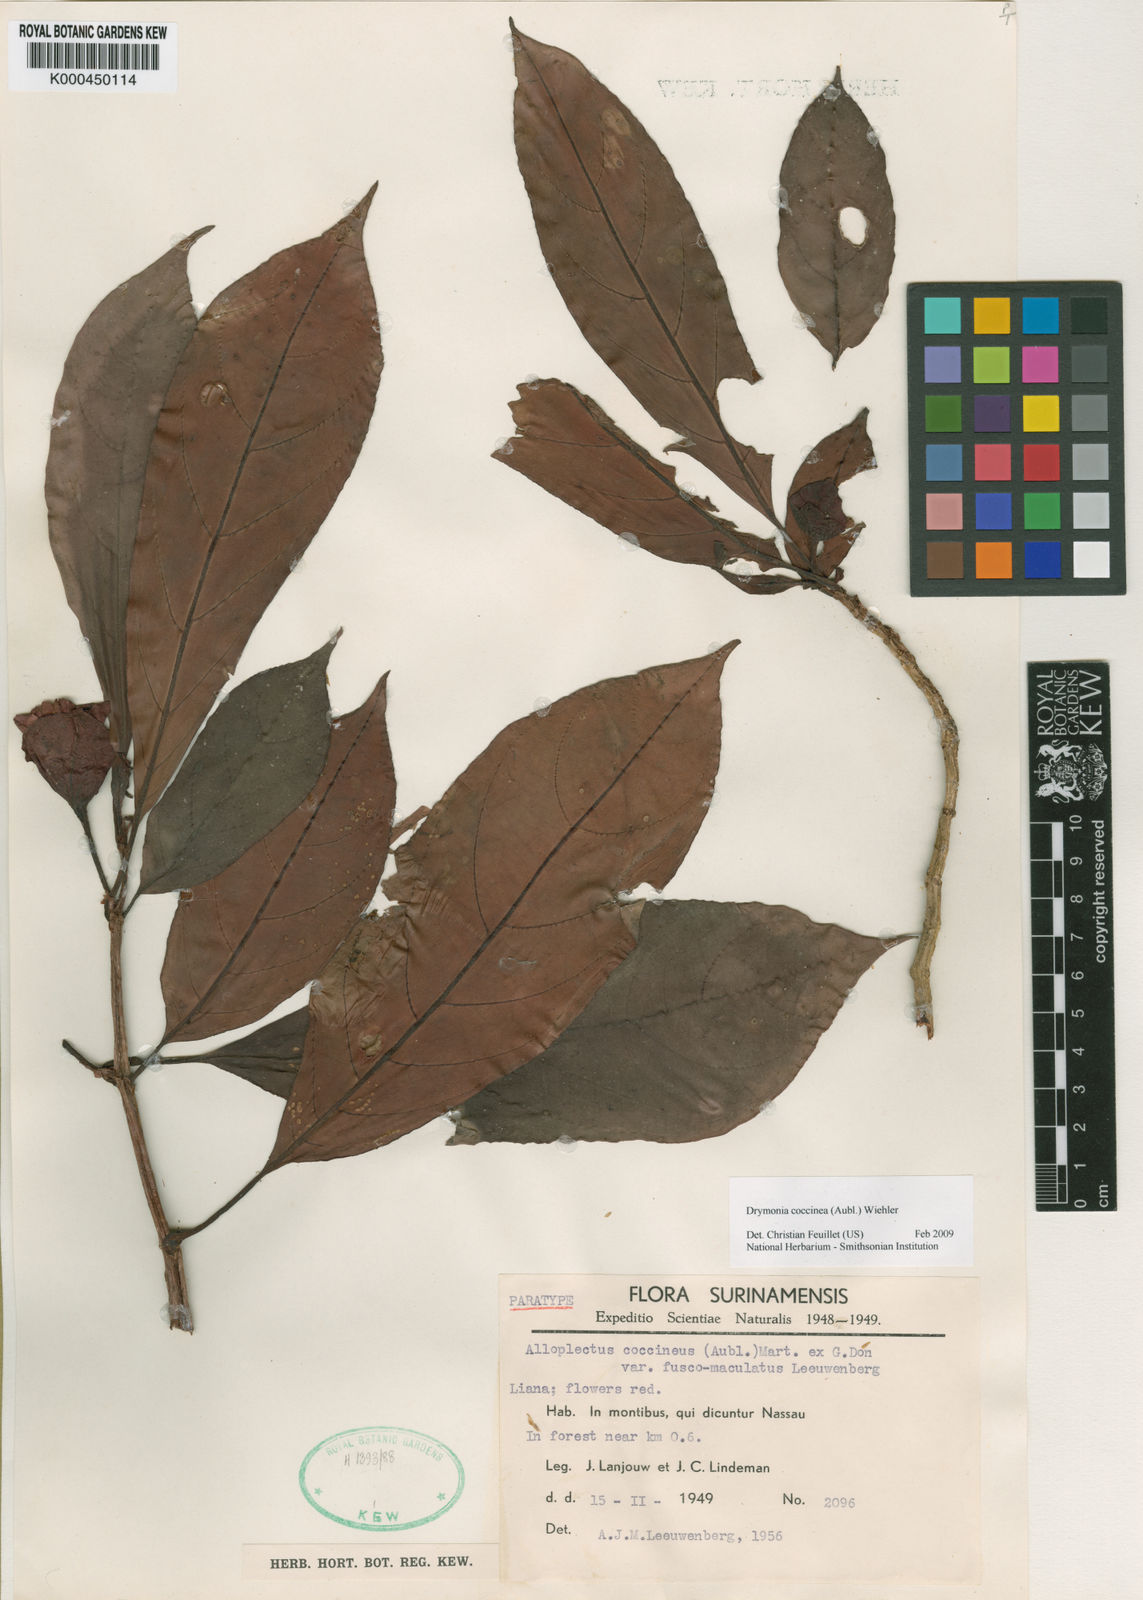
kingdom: Plantae
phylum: Tracheophyta
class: Magnoliopsida
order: Lamiales
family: Gesneriaceae
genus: Drymonia
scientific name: Drymonia coccinea
